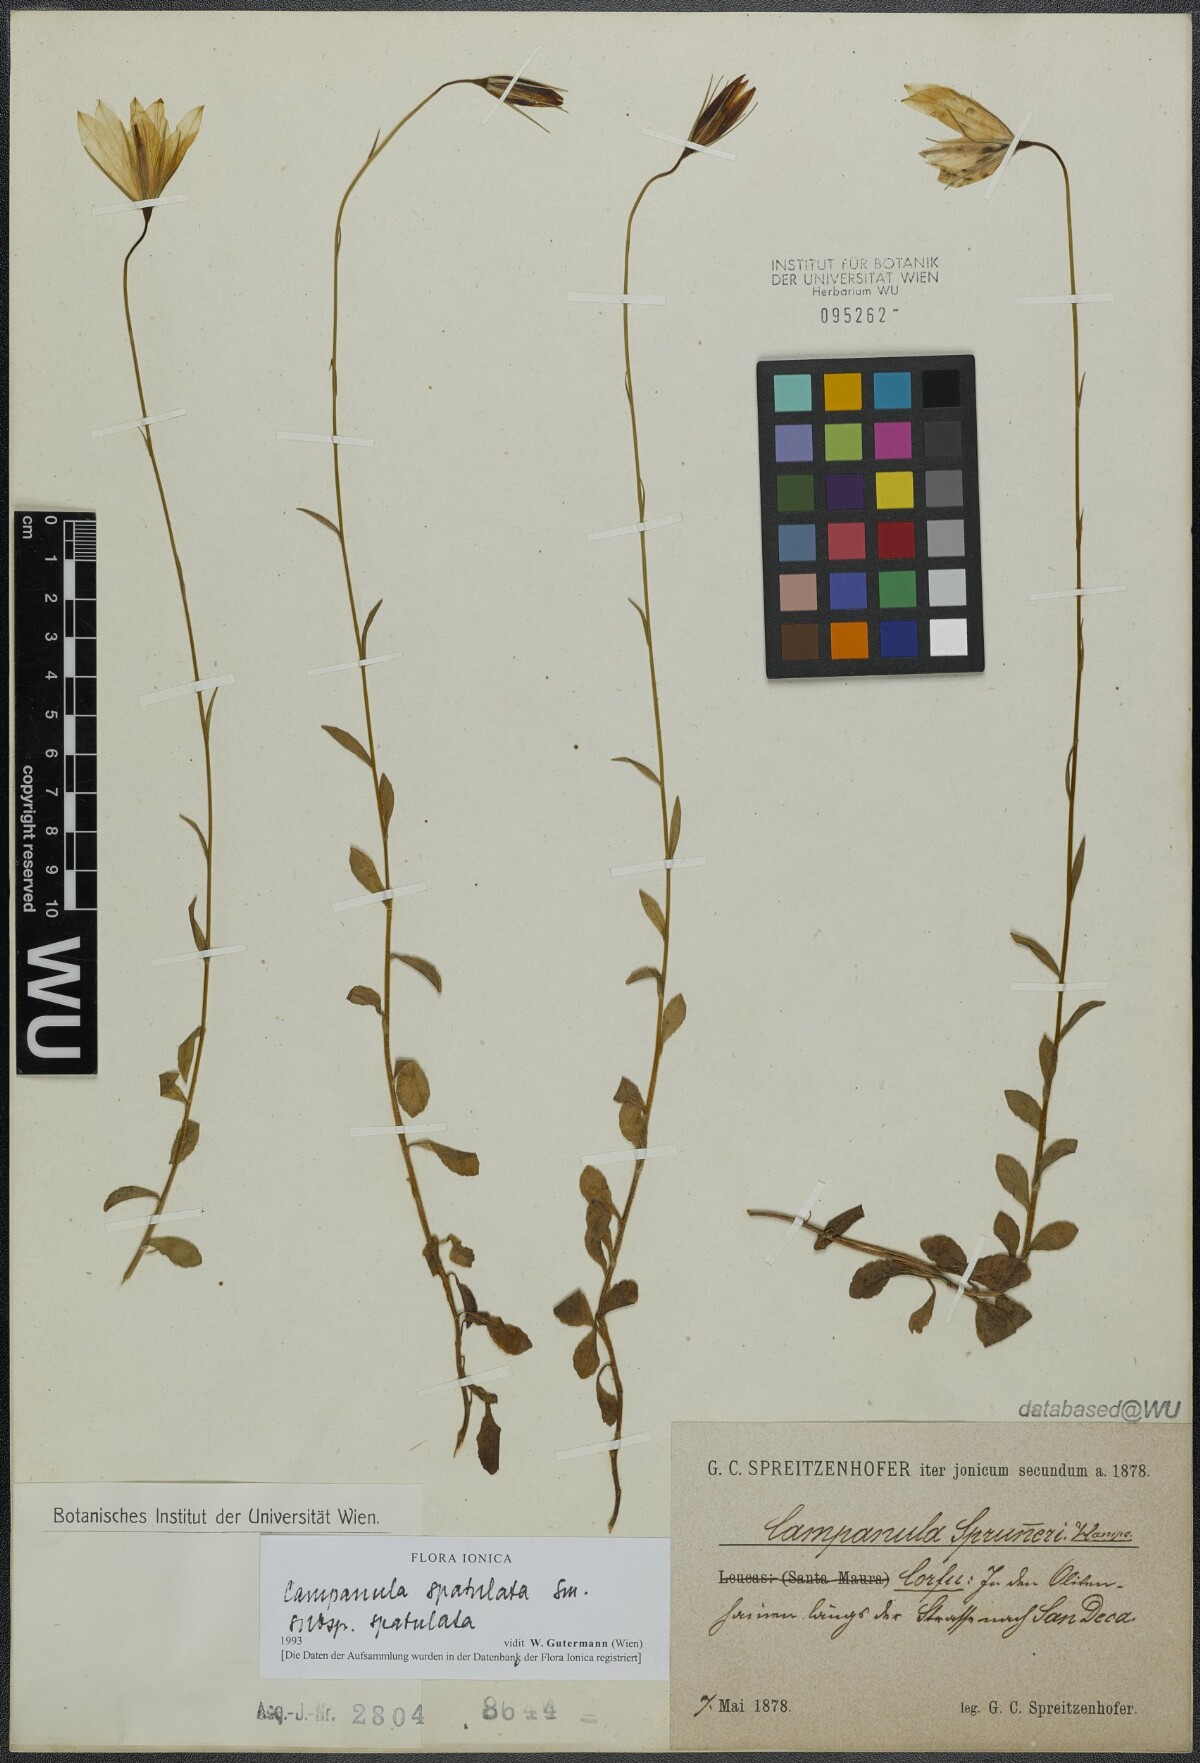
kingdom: Plantae
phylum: Tracheophyta
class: Magnoliopsida
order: Asterales
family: Campanulaceae
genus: Campanula
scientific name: Campanula spatulata
